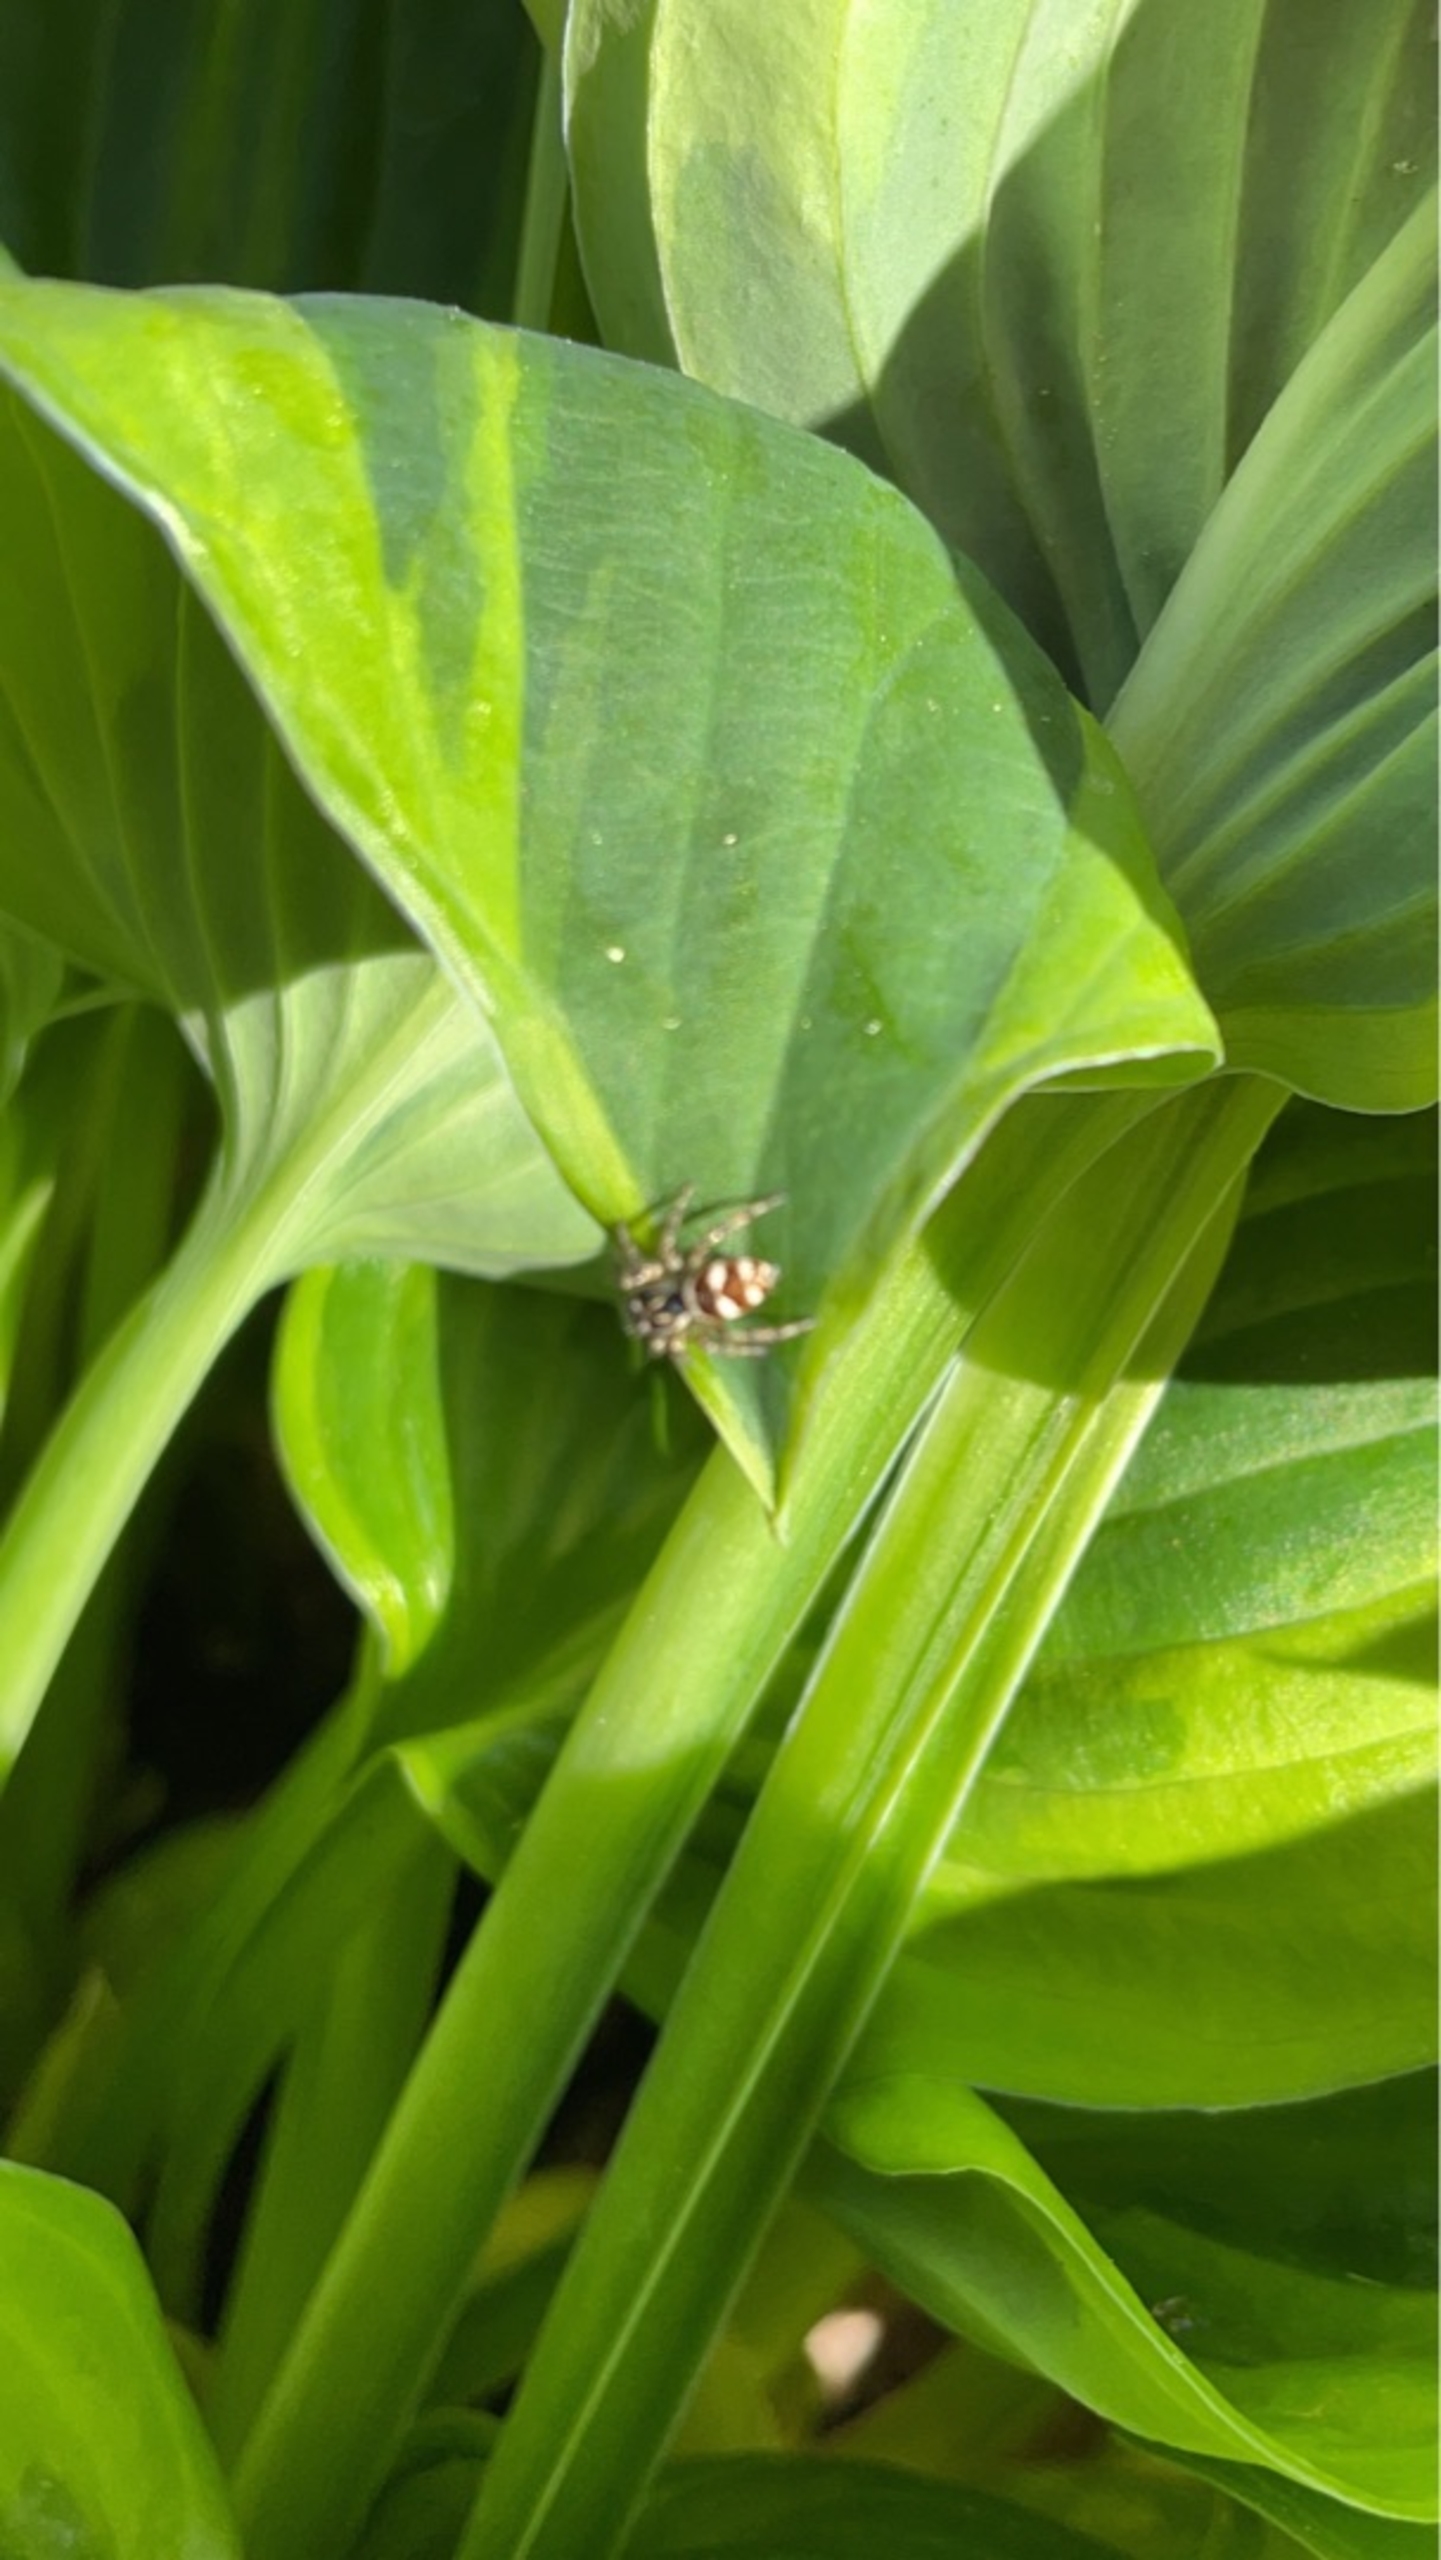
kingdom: Animalia
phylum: Arthropoda
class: Arachnida
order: Araneae
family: Salticidae
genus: Salticus
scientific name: Salticus scenicus
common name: Almindelig zebraedderkop
